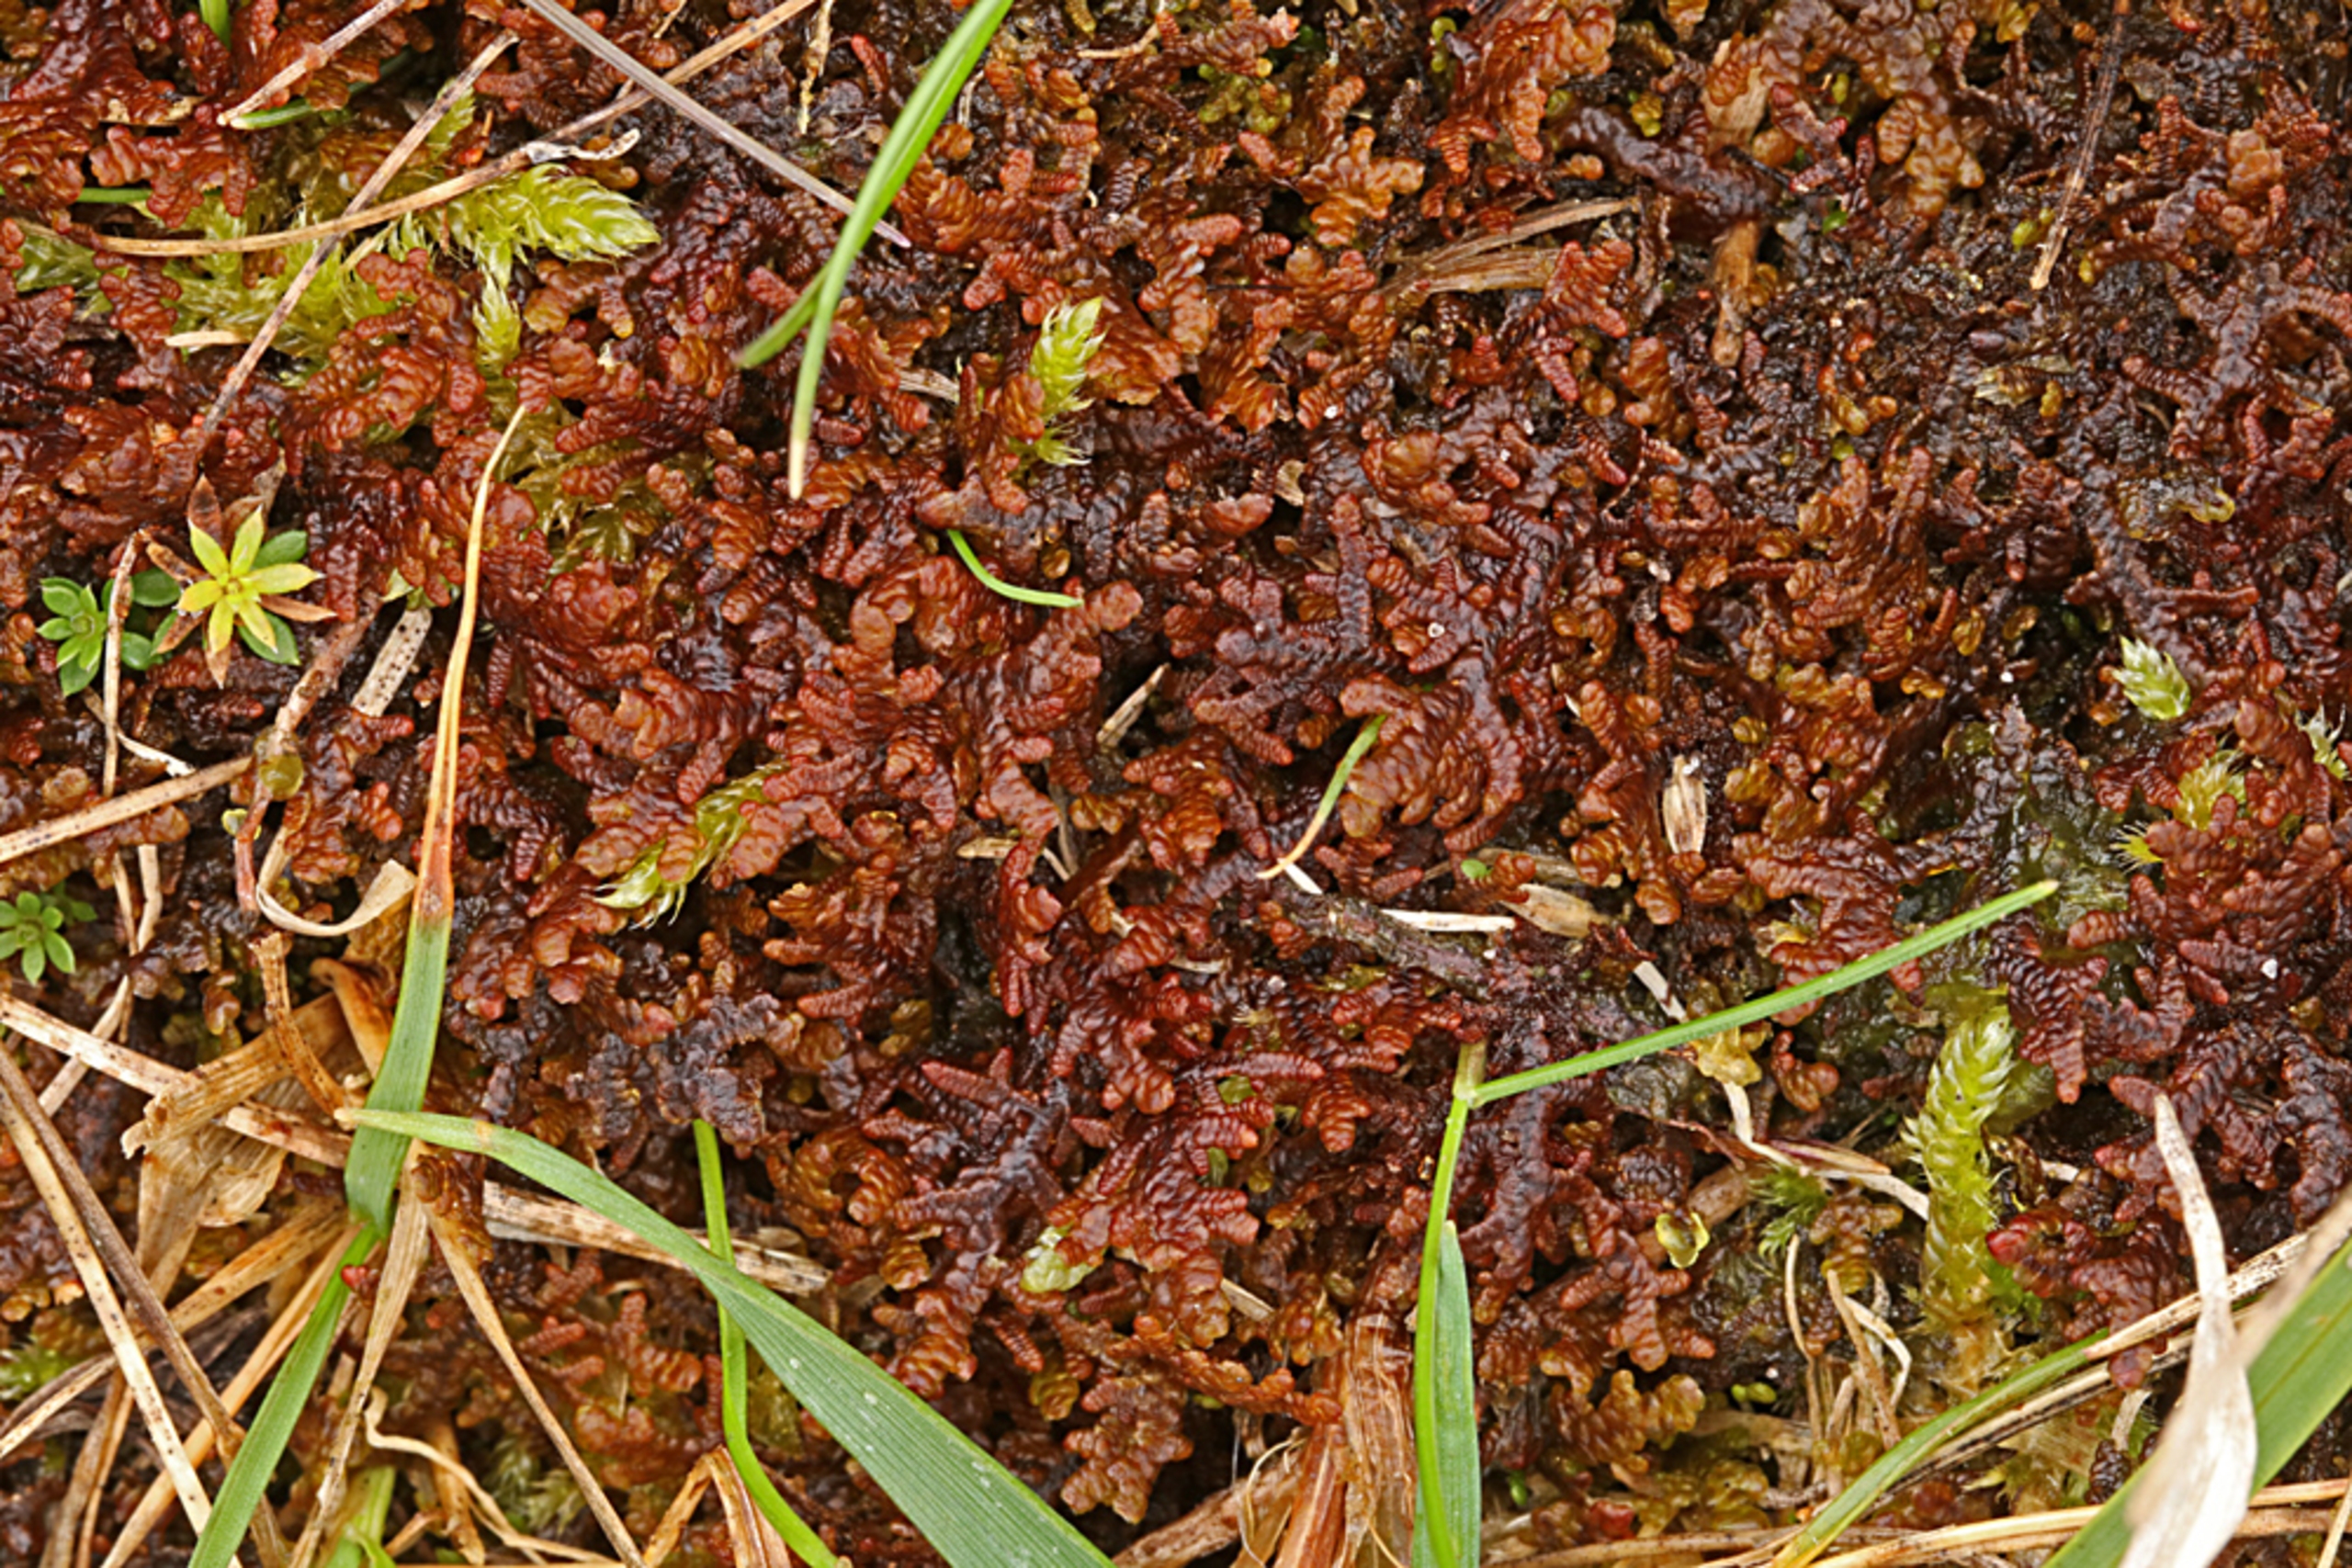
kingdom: Plantae
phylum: Marchantiophyta
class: Jungermanniopsida
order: Porellales
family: Frullaniaceae
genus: Frullania
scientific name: Frullania tamarisci
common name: Glinsende bronzemos
